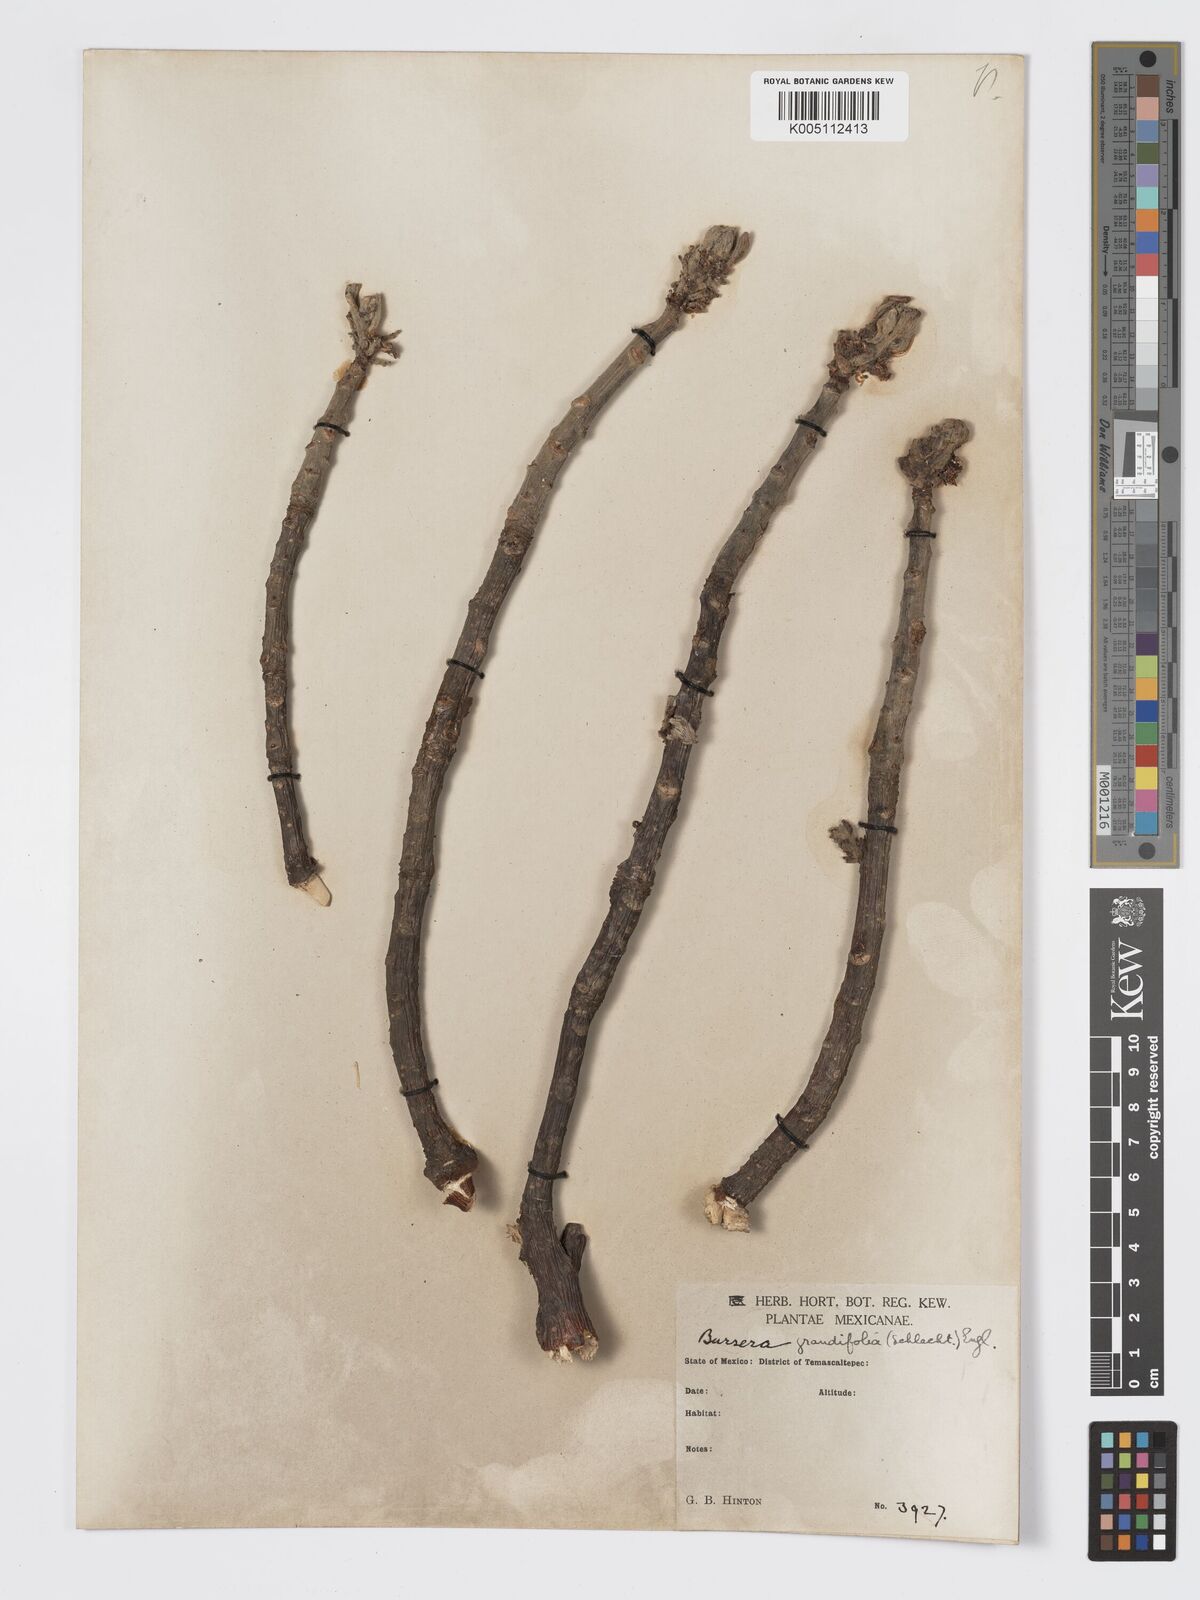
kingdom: Plantae
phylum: Tracheophyta
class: Magnoliopsida
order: Sapindales
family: Burseraceae
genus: Bursera
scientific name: Bursera
